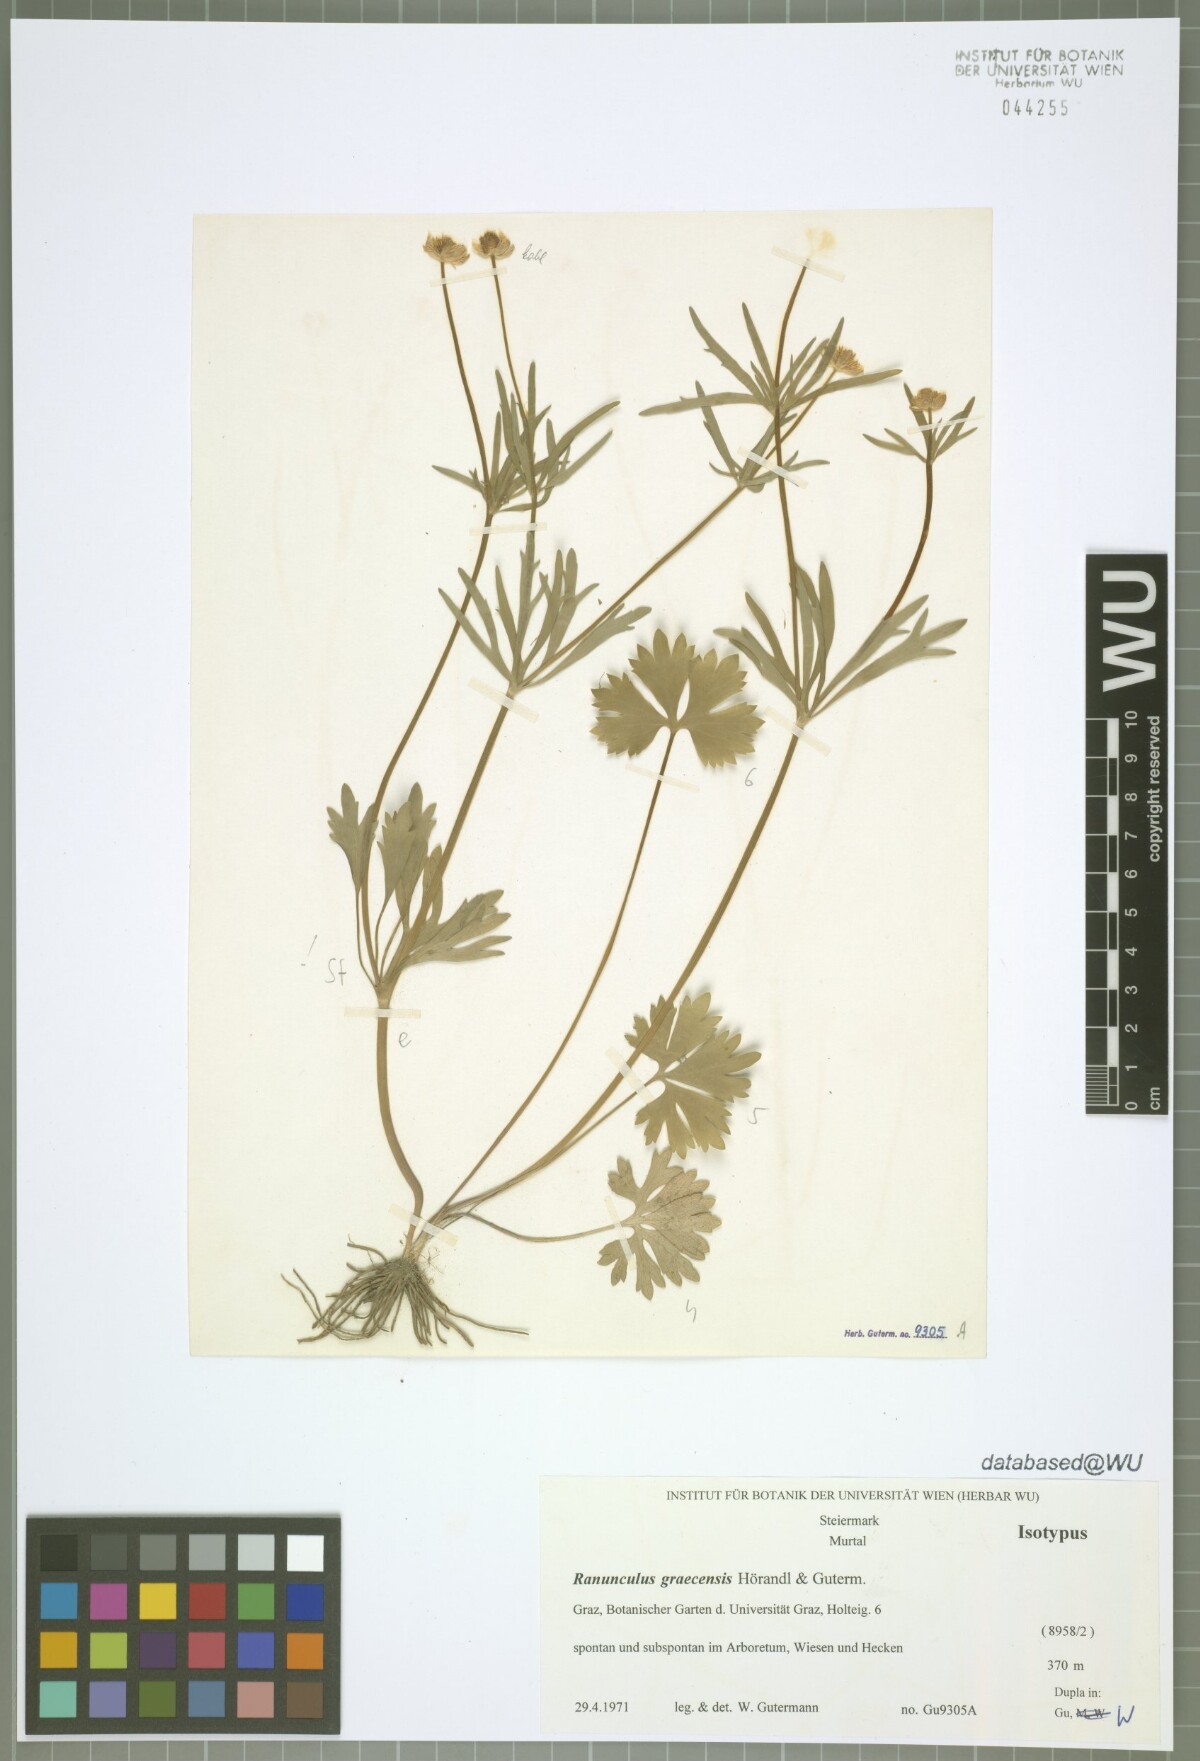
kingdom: Plantae
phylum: Tracheophyta
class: Magnoliopsida
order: Ranunculales
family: Ranunculaceae
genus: Ranunculus
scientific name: Ranunculus graecensis
